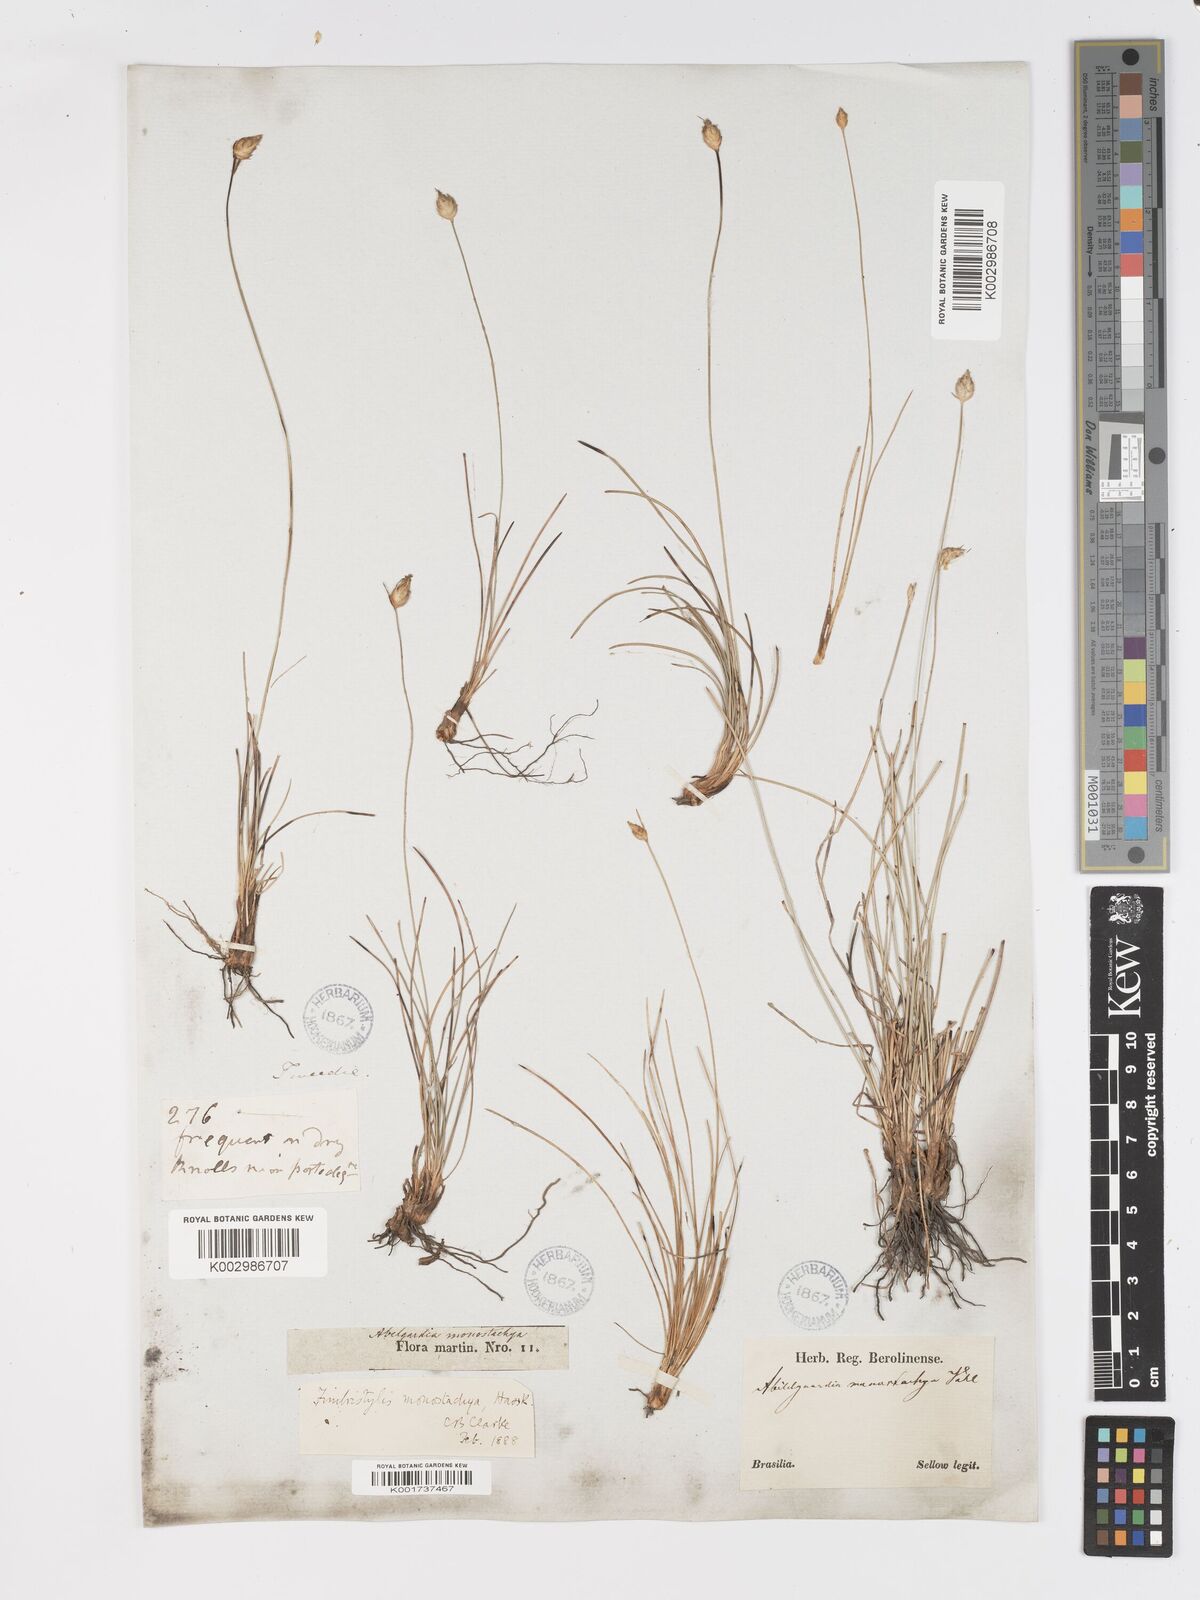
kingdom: Plantae
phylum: Tracheophyta
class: Liliopsida
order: Poales
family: Cyperaceae
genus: Abildgaardia
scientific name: Abildgaardia ovata
